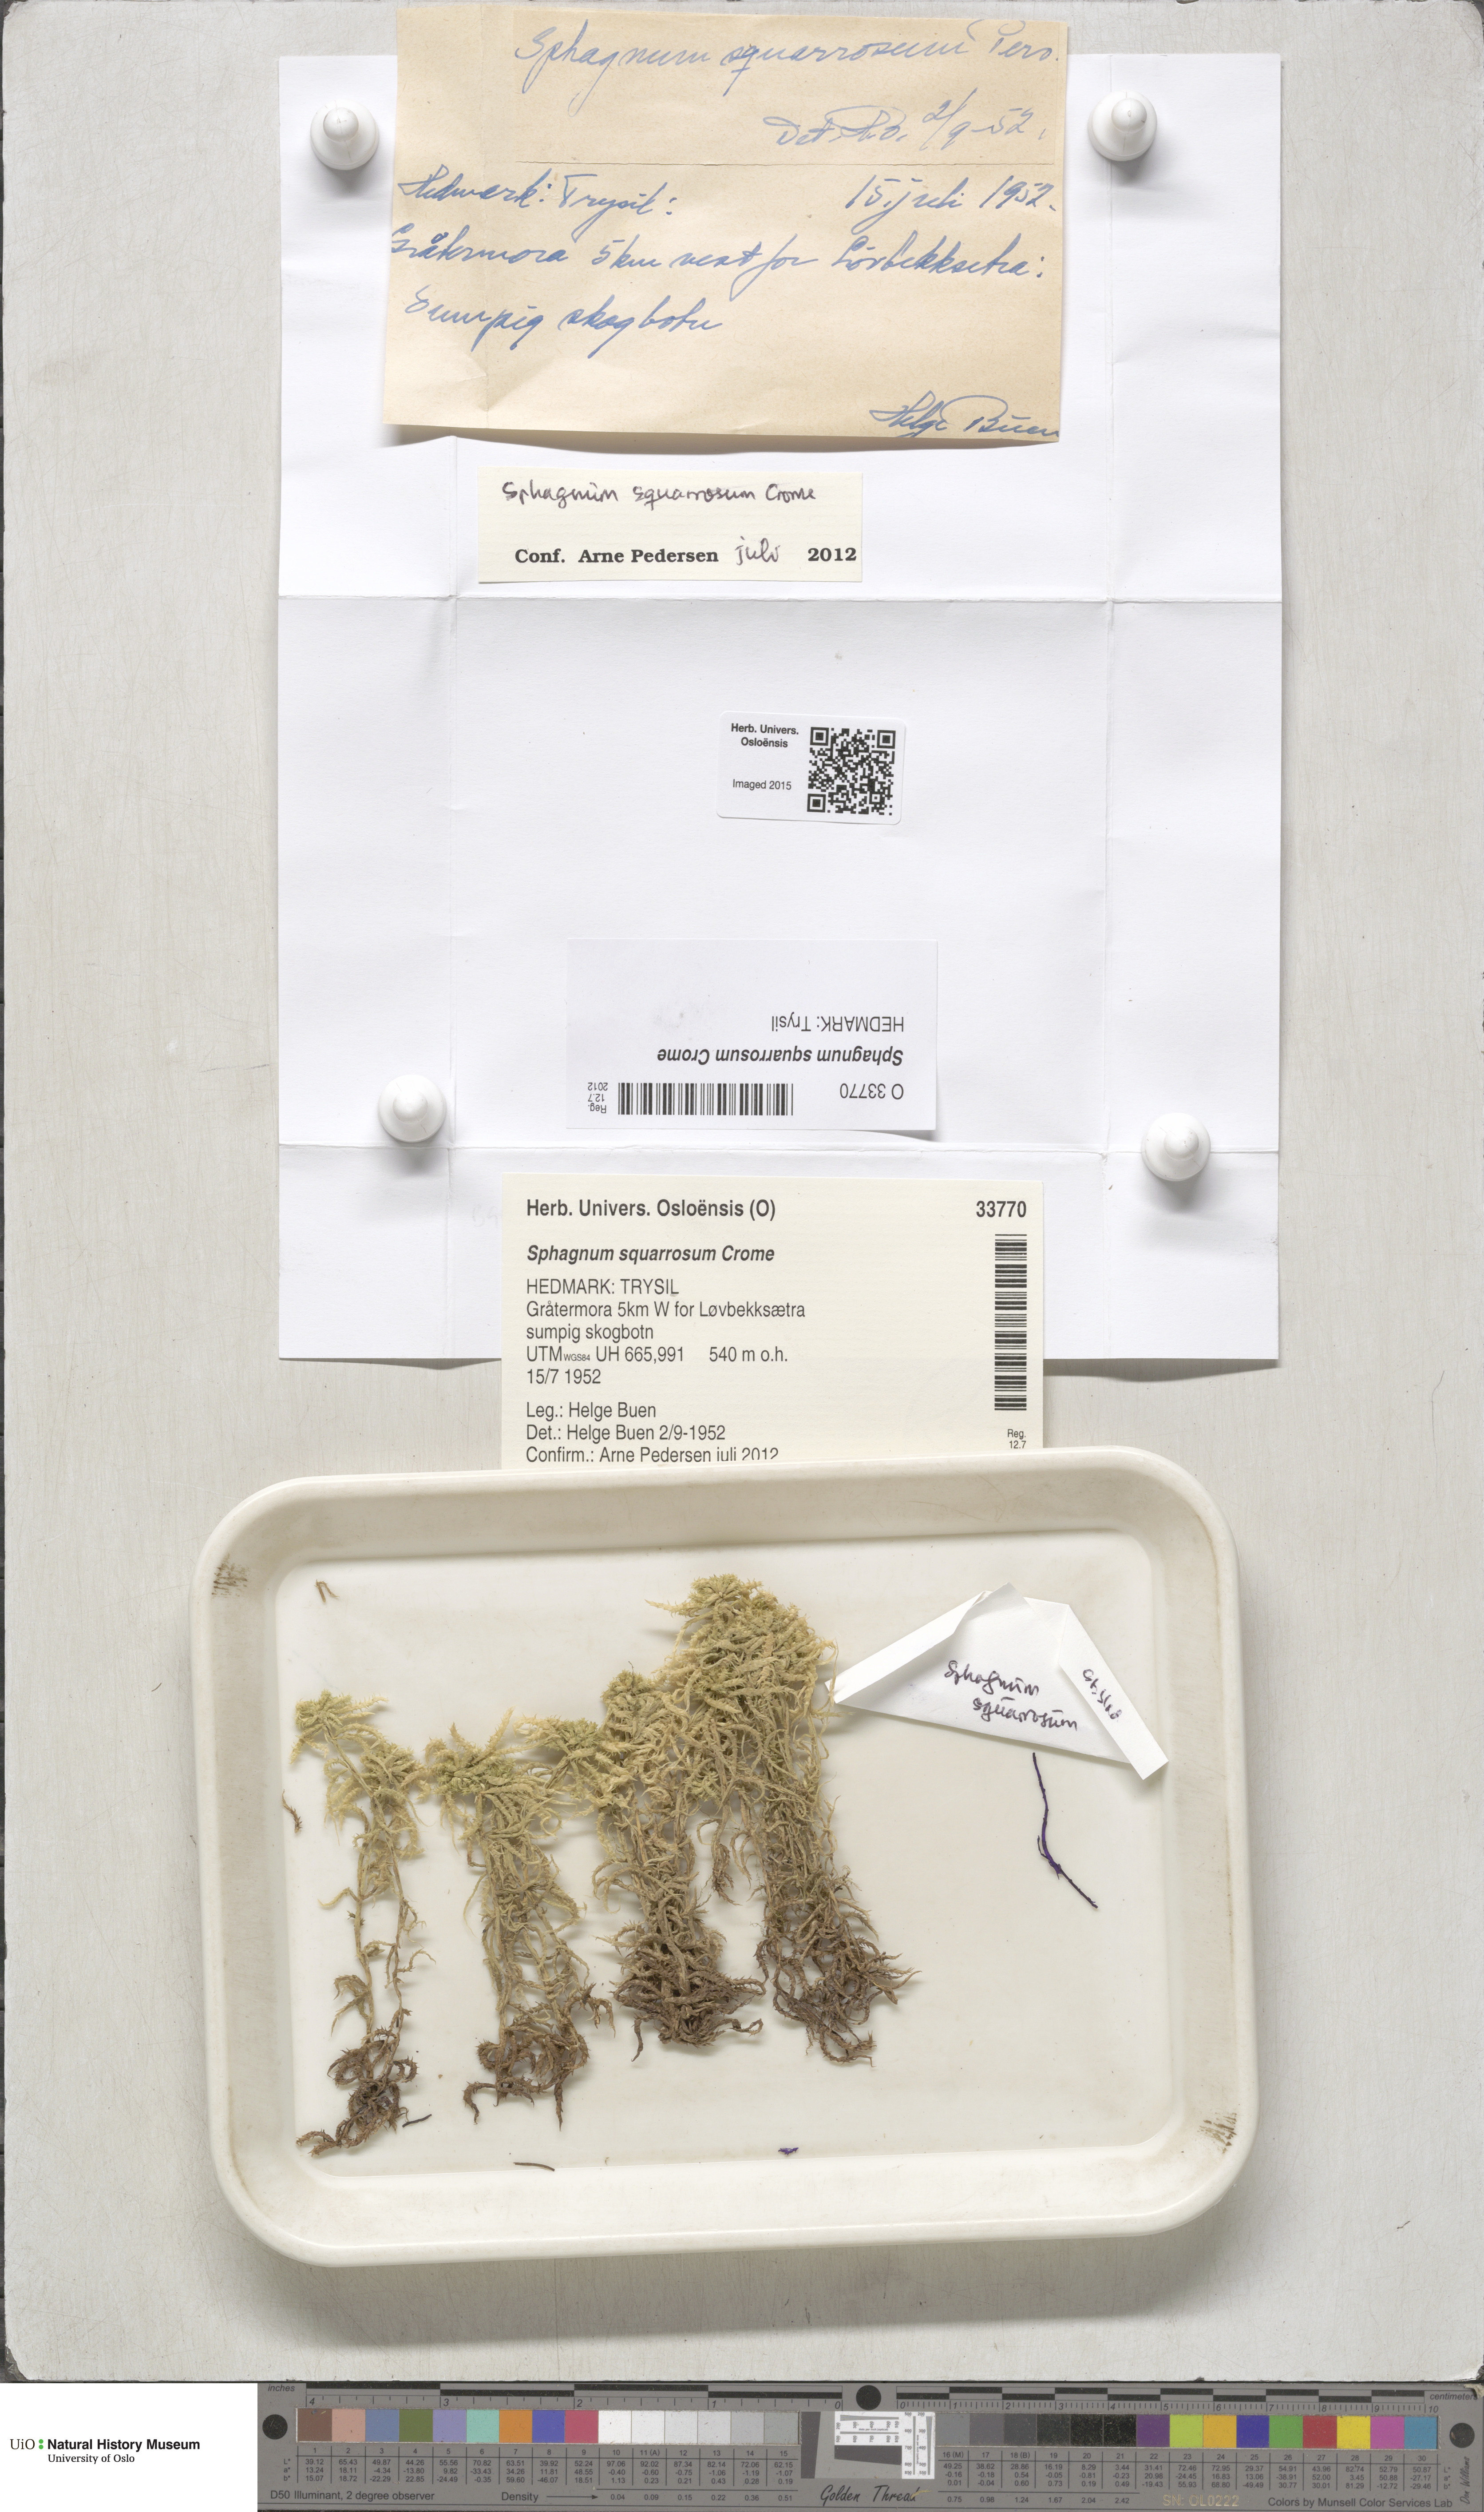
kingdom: Plantae
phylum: Bryophyta
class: Sphagnopsida
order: Sphagnales
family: Sphagnaceae
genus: Sphagnum
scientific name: Sphagnum squarrosum
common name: Shaggy peat moss
